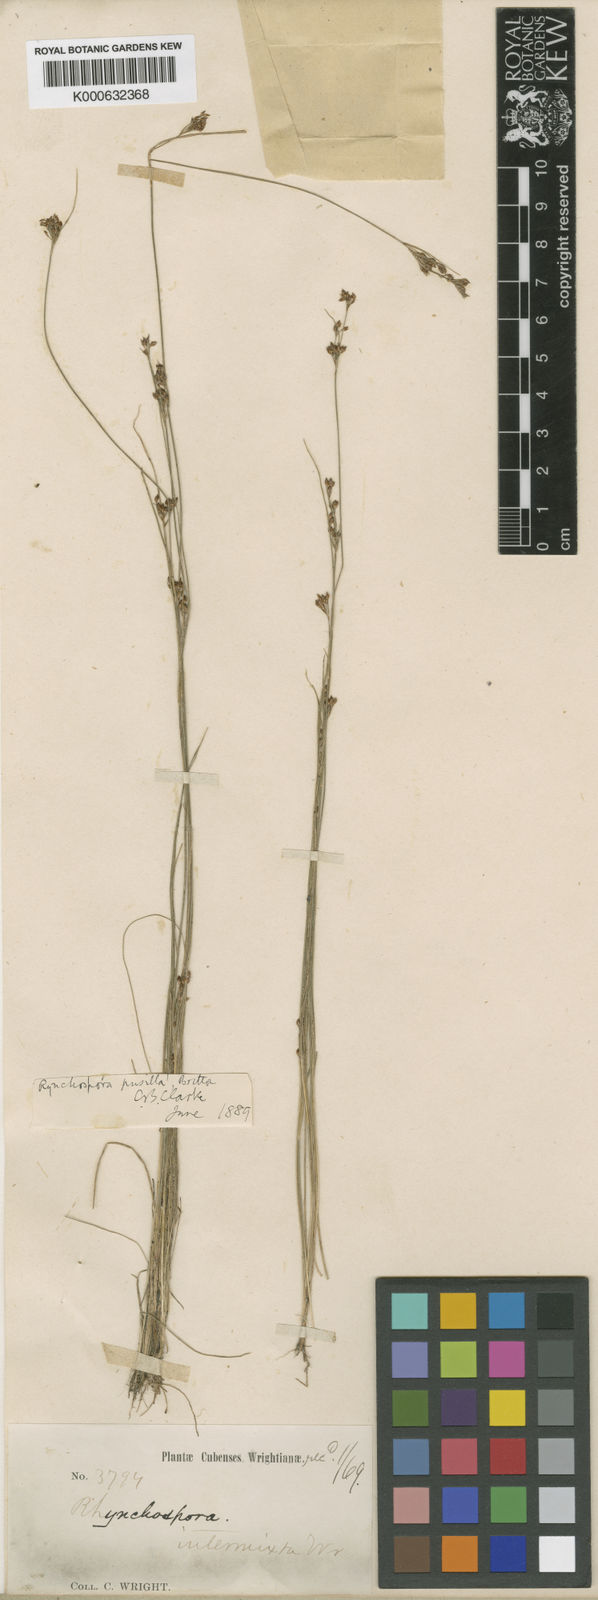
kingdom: Plantae
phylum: Tracheophyta
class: Liliopsida
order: Poales
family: Cyperaceae
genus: Rhynchospora
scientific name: Rhynchospora intermixta
